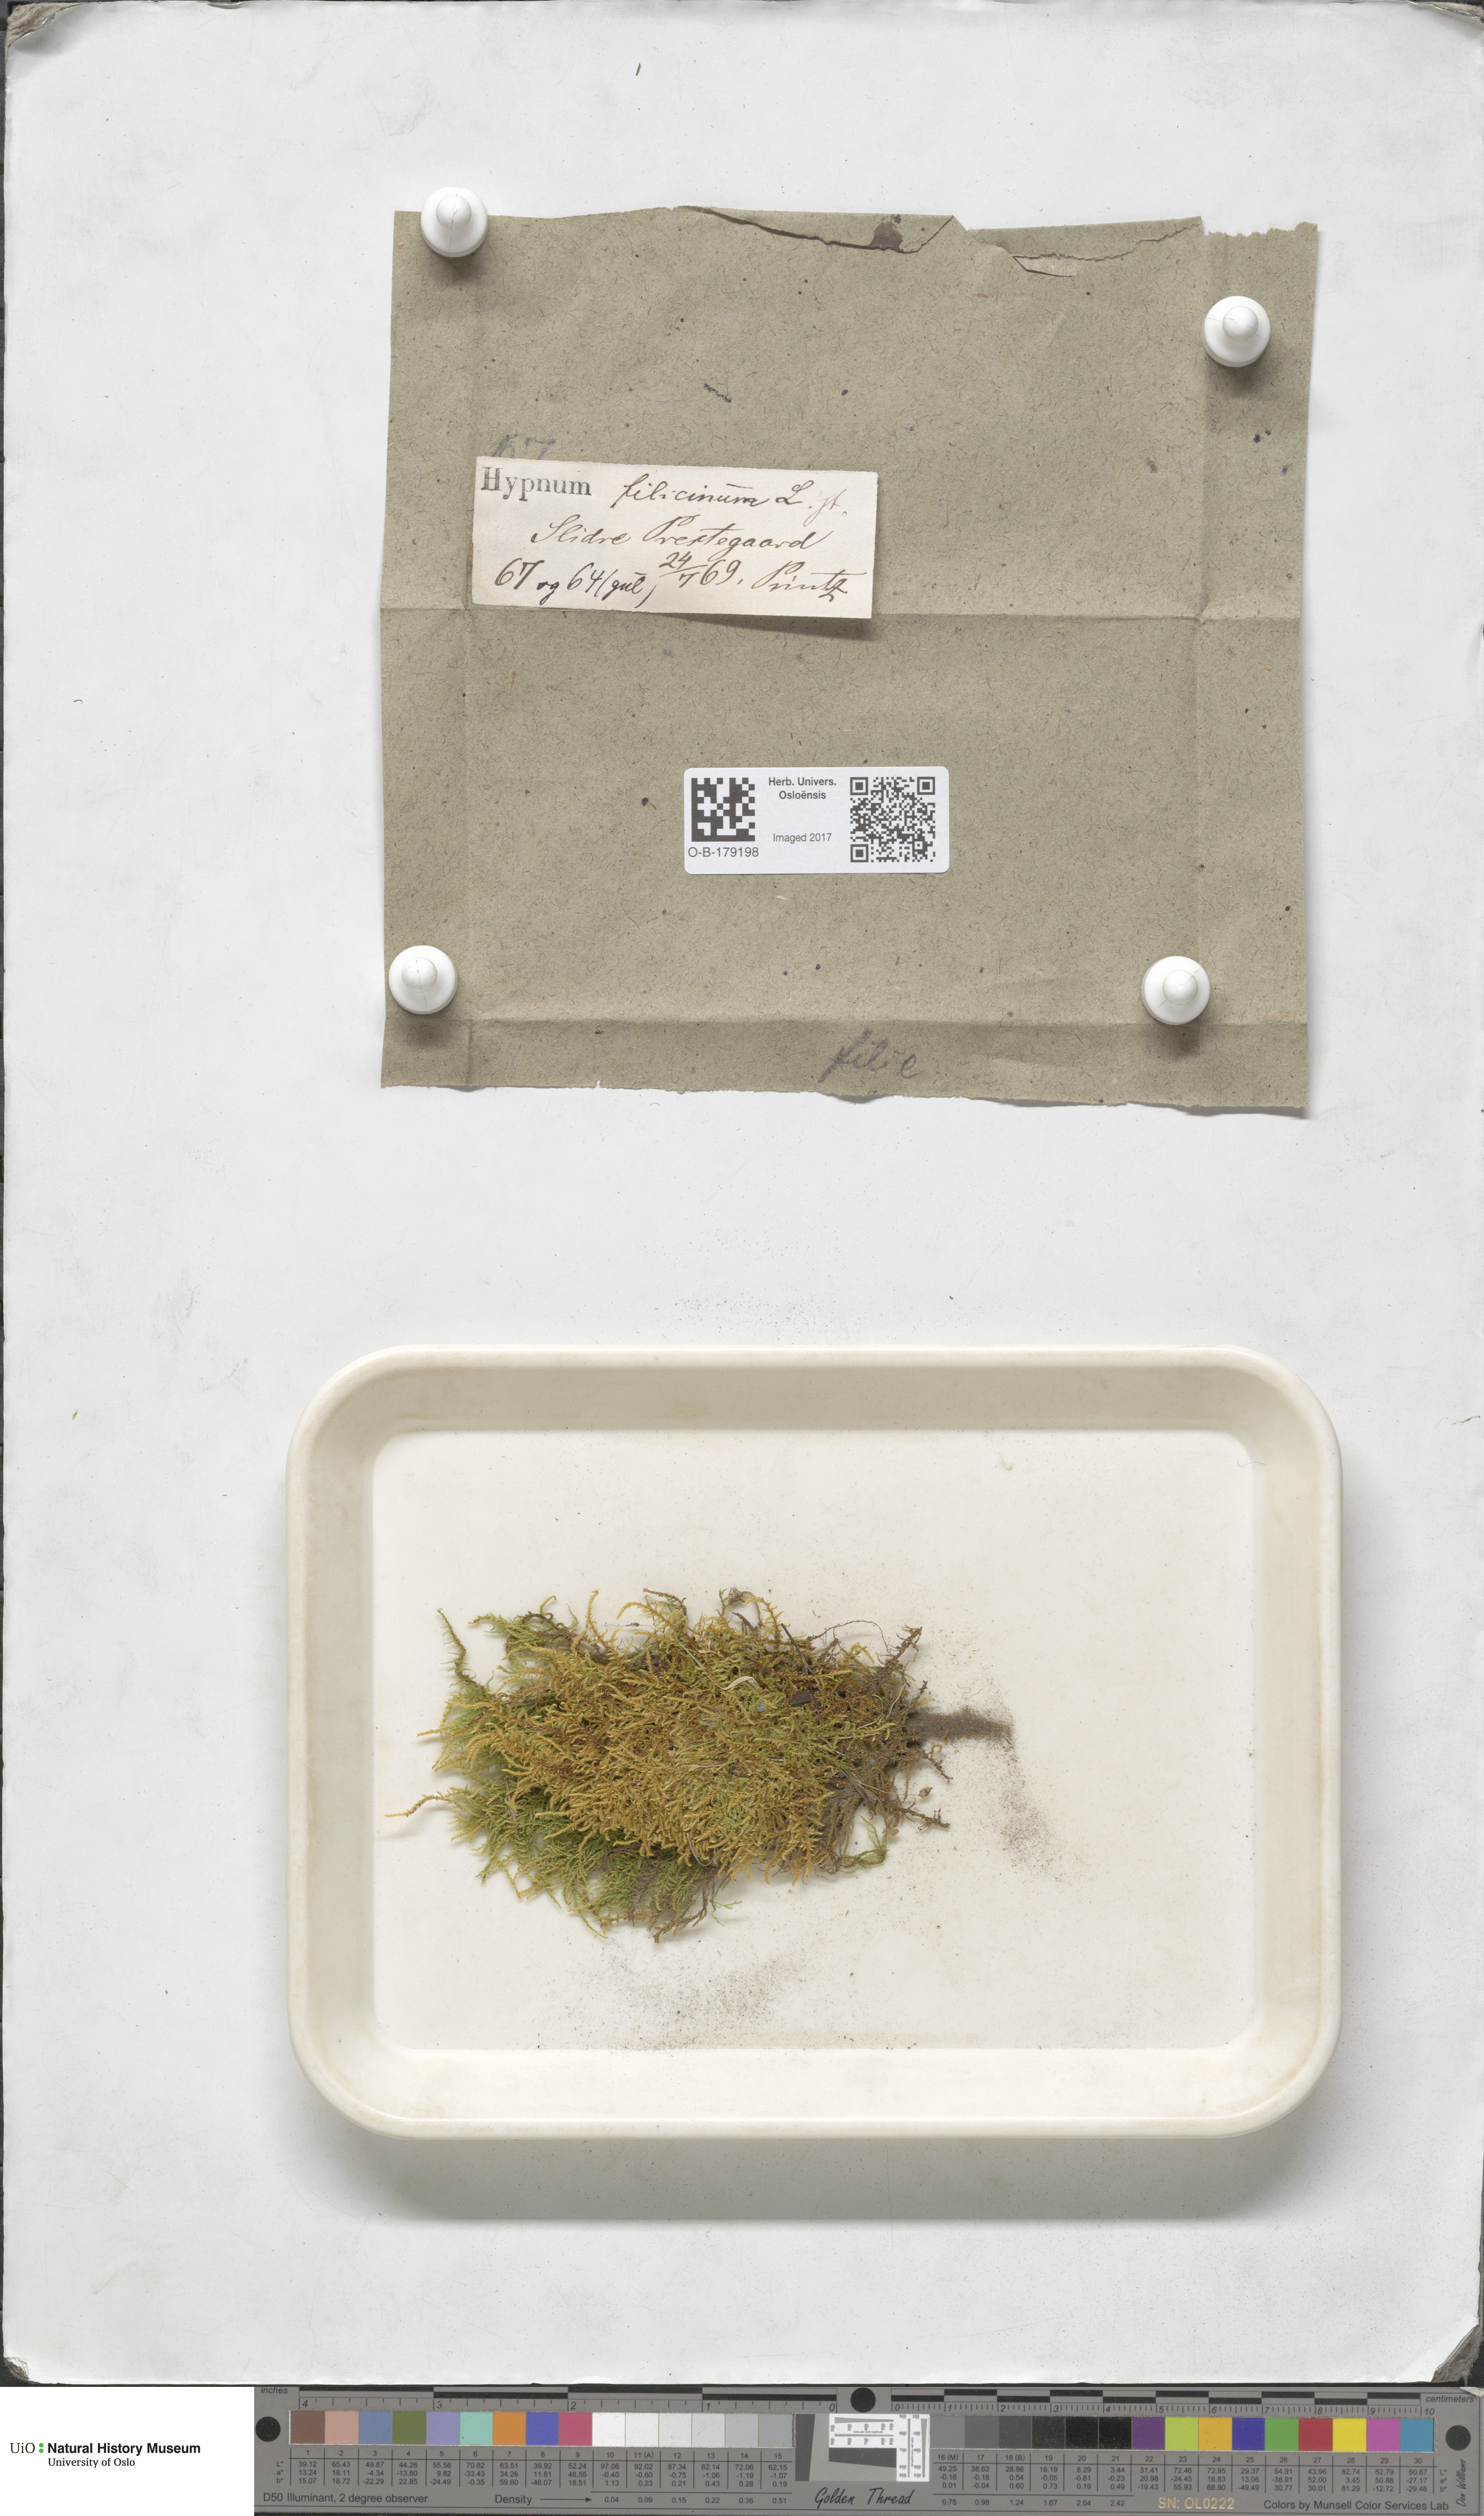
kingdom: Plantae
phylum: Bryophyta
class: Bryopsida
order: Hypnales
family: Amblystegiaceae
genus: Cratoneuron
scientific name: Cratoneuron filicinum
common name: Fern-leaved hook moss
